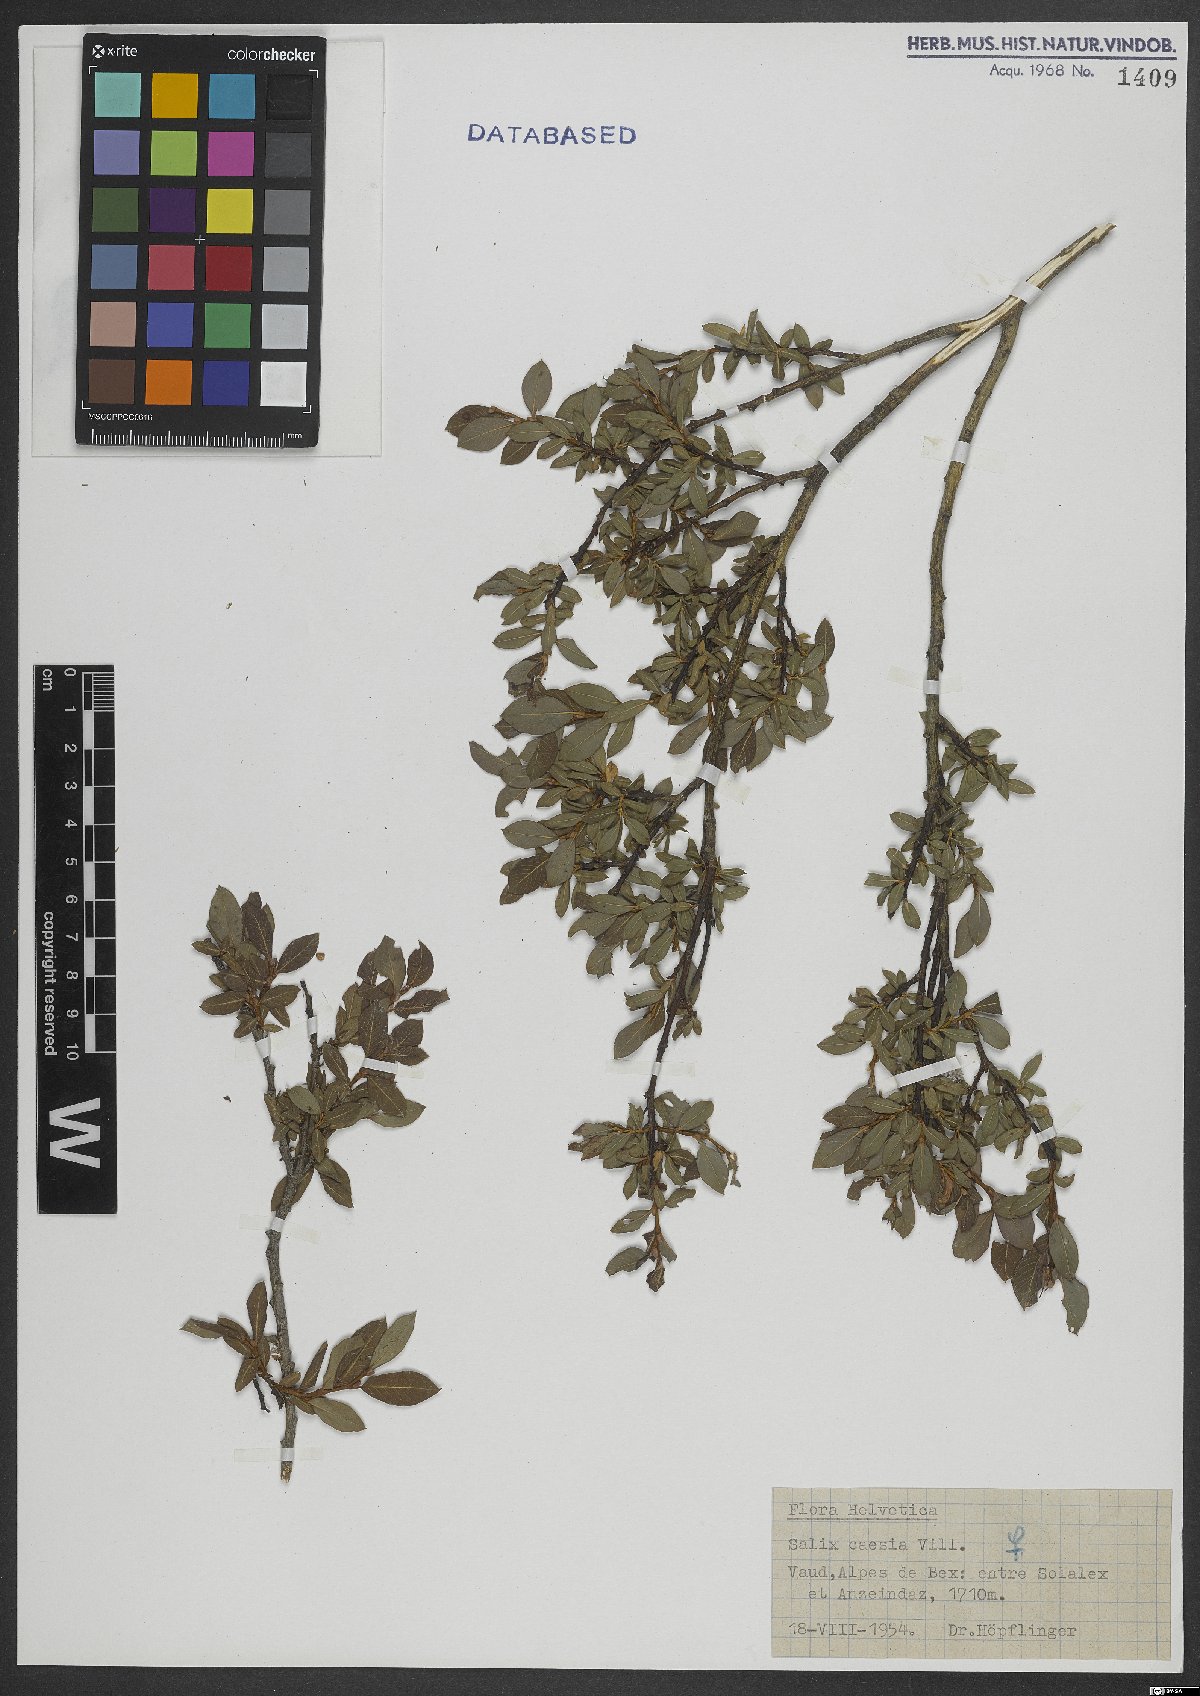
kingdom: Plantae
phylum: Tracheophyta
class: Magnoliopsida
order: Malpighiales
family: Salicaceae
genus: Salix
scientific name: Salix caesia
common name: Blue willow
